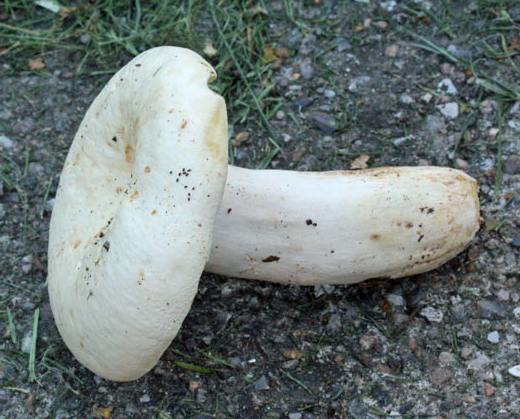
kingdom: Fungi
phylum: Basidiomycota
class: Agaricomycetes
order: Russulales
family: Russulaceae
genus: Lactifluus
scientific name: Lactifluus piperatus
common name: peber-mælkehat
